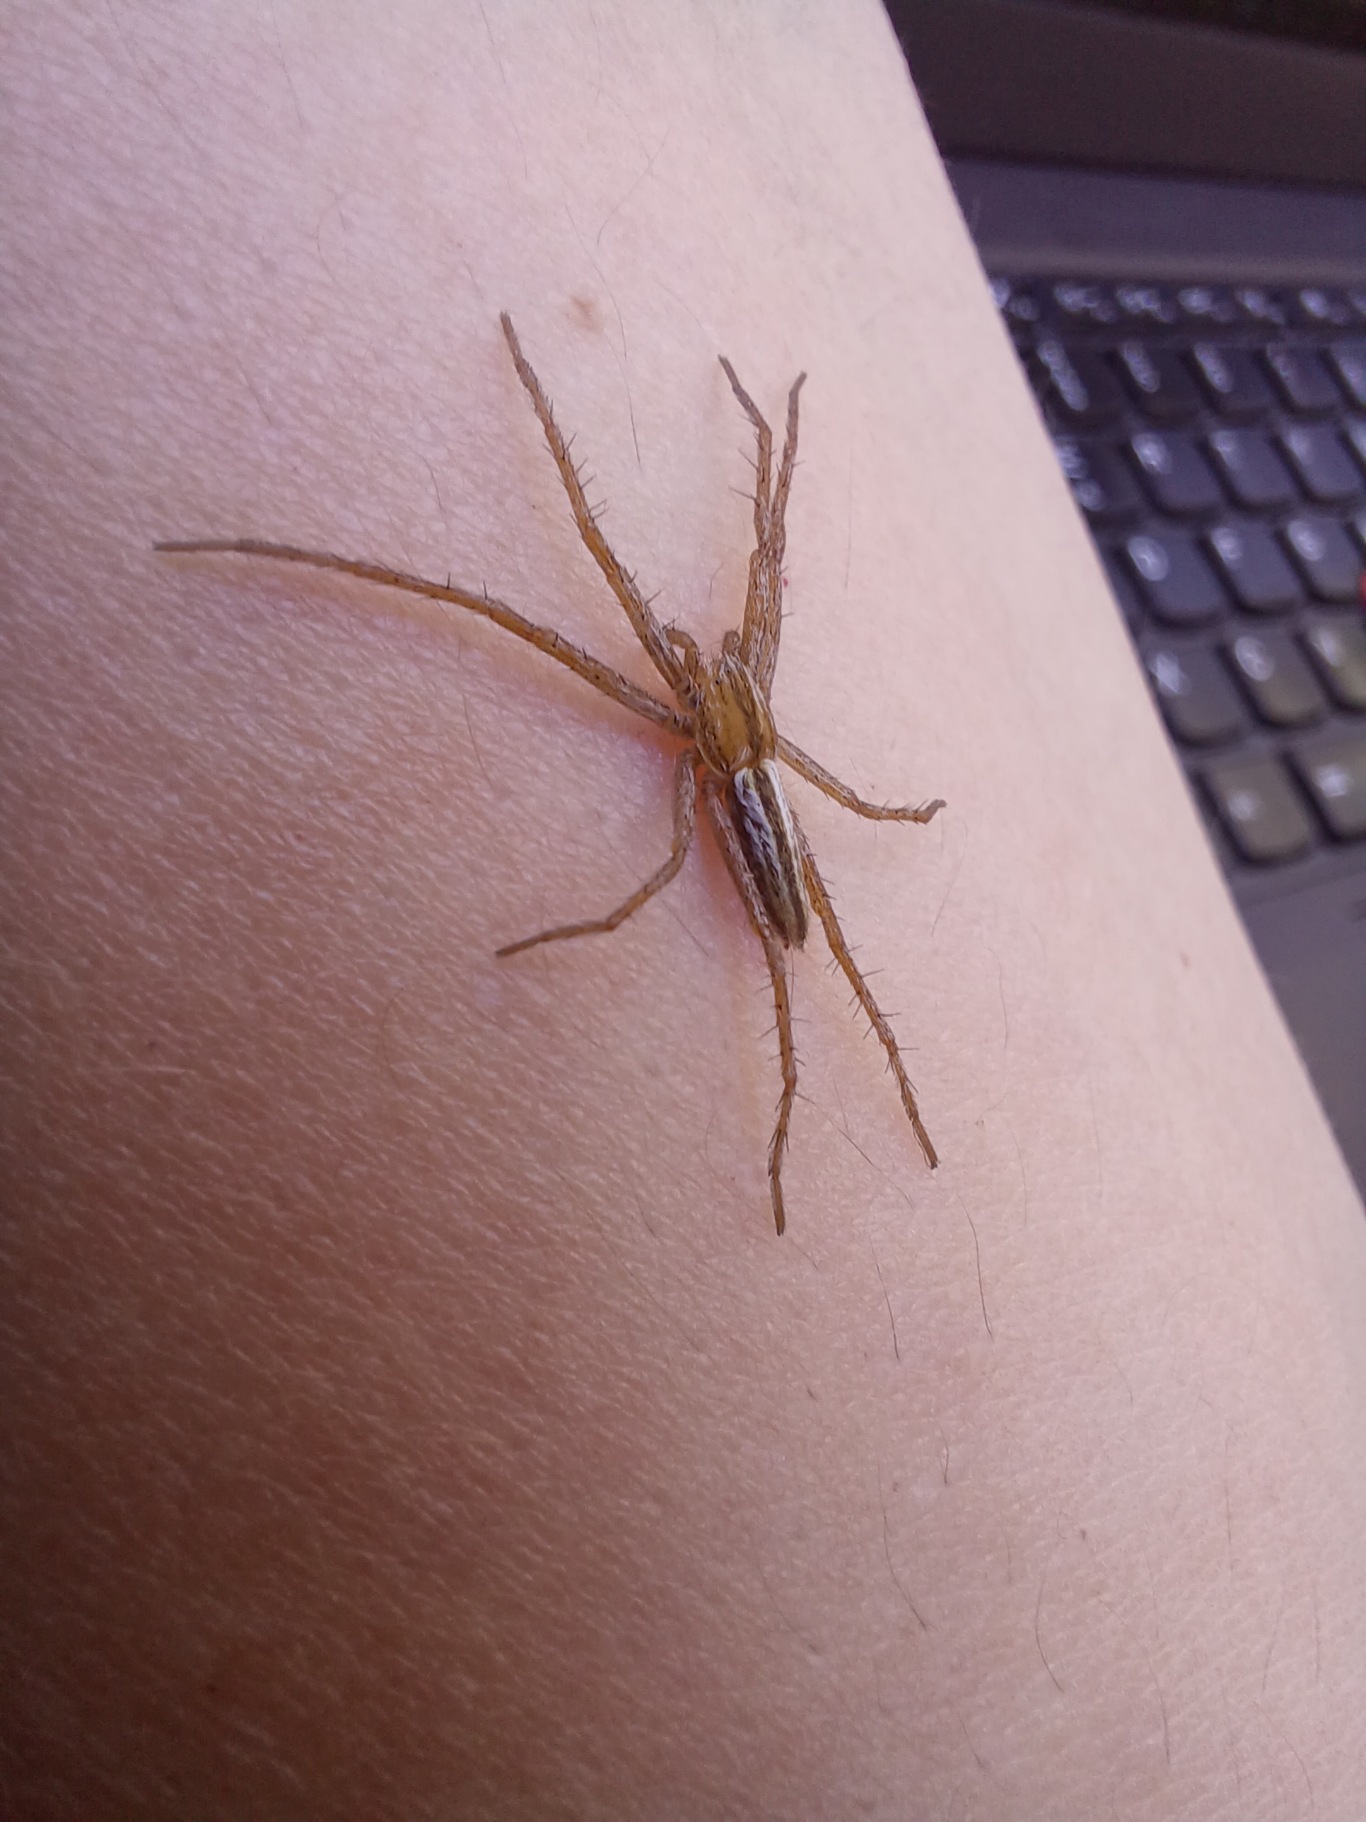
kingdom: Animalia
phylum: Arthropoda
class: Arachnida
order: Araneae
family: Philodromidae
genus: Tibellus
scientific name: Tibellus
